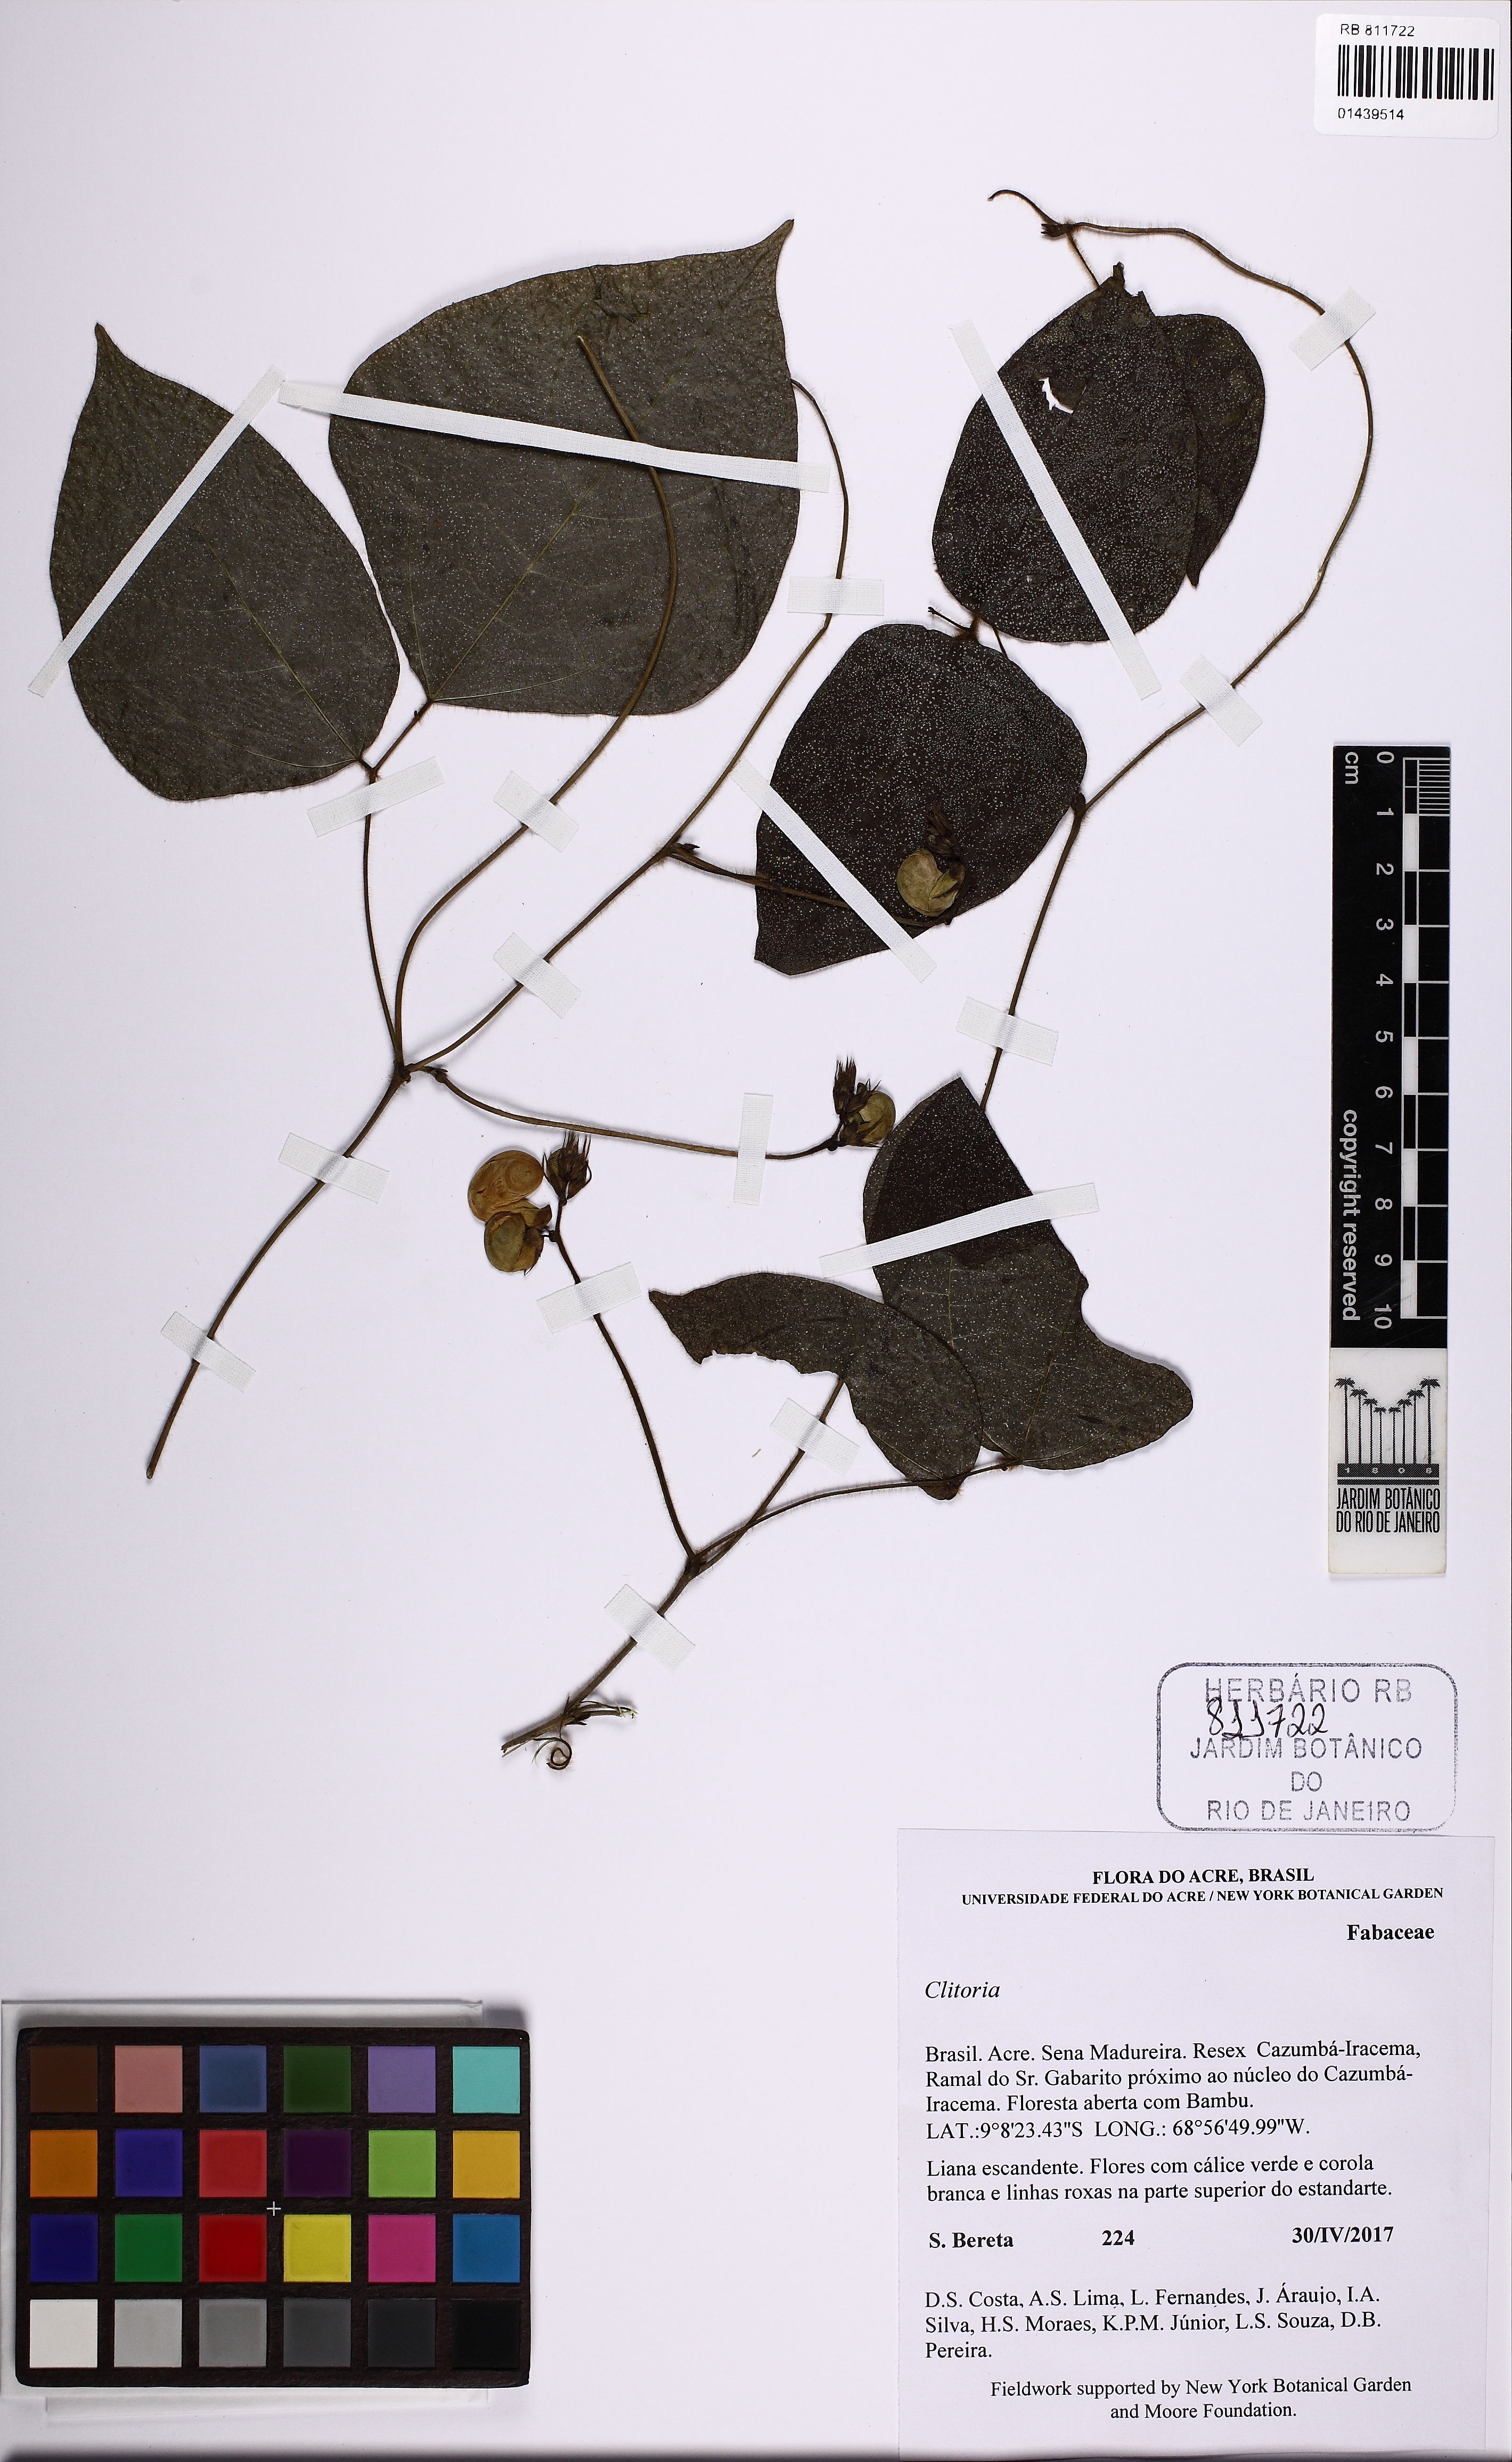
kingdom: Plantae
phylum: Tracheophyta
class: Magnoliopsida
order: Fabales
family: Fabaceae
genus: Vigna
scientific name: Vigna
